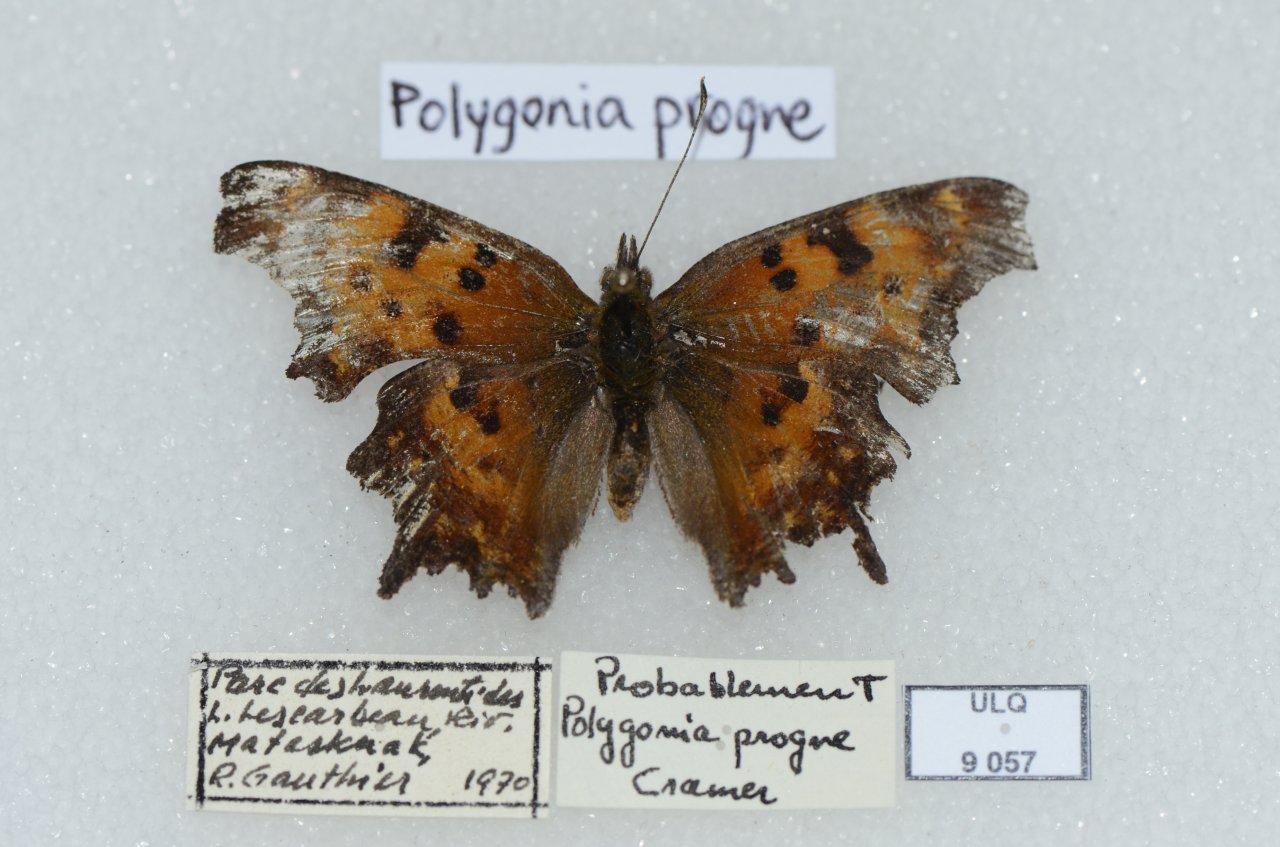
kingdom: Animalia
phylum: Arthropoda
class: Insecta
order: Lepidoptera
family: Nymphalidae
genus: Polygonia
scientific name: Polygonia progne
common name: Gray Comma
